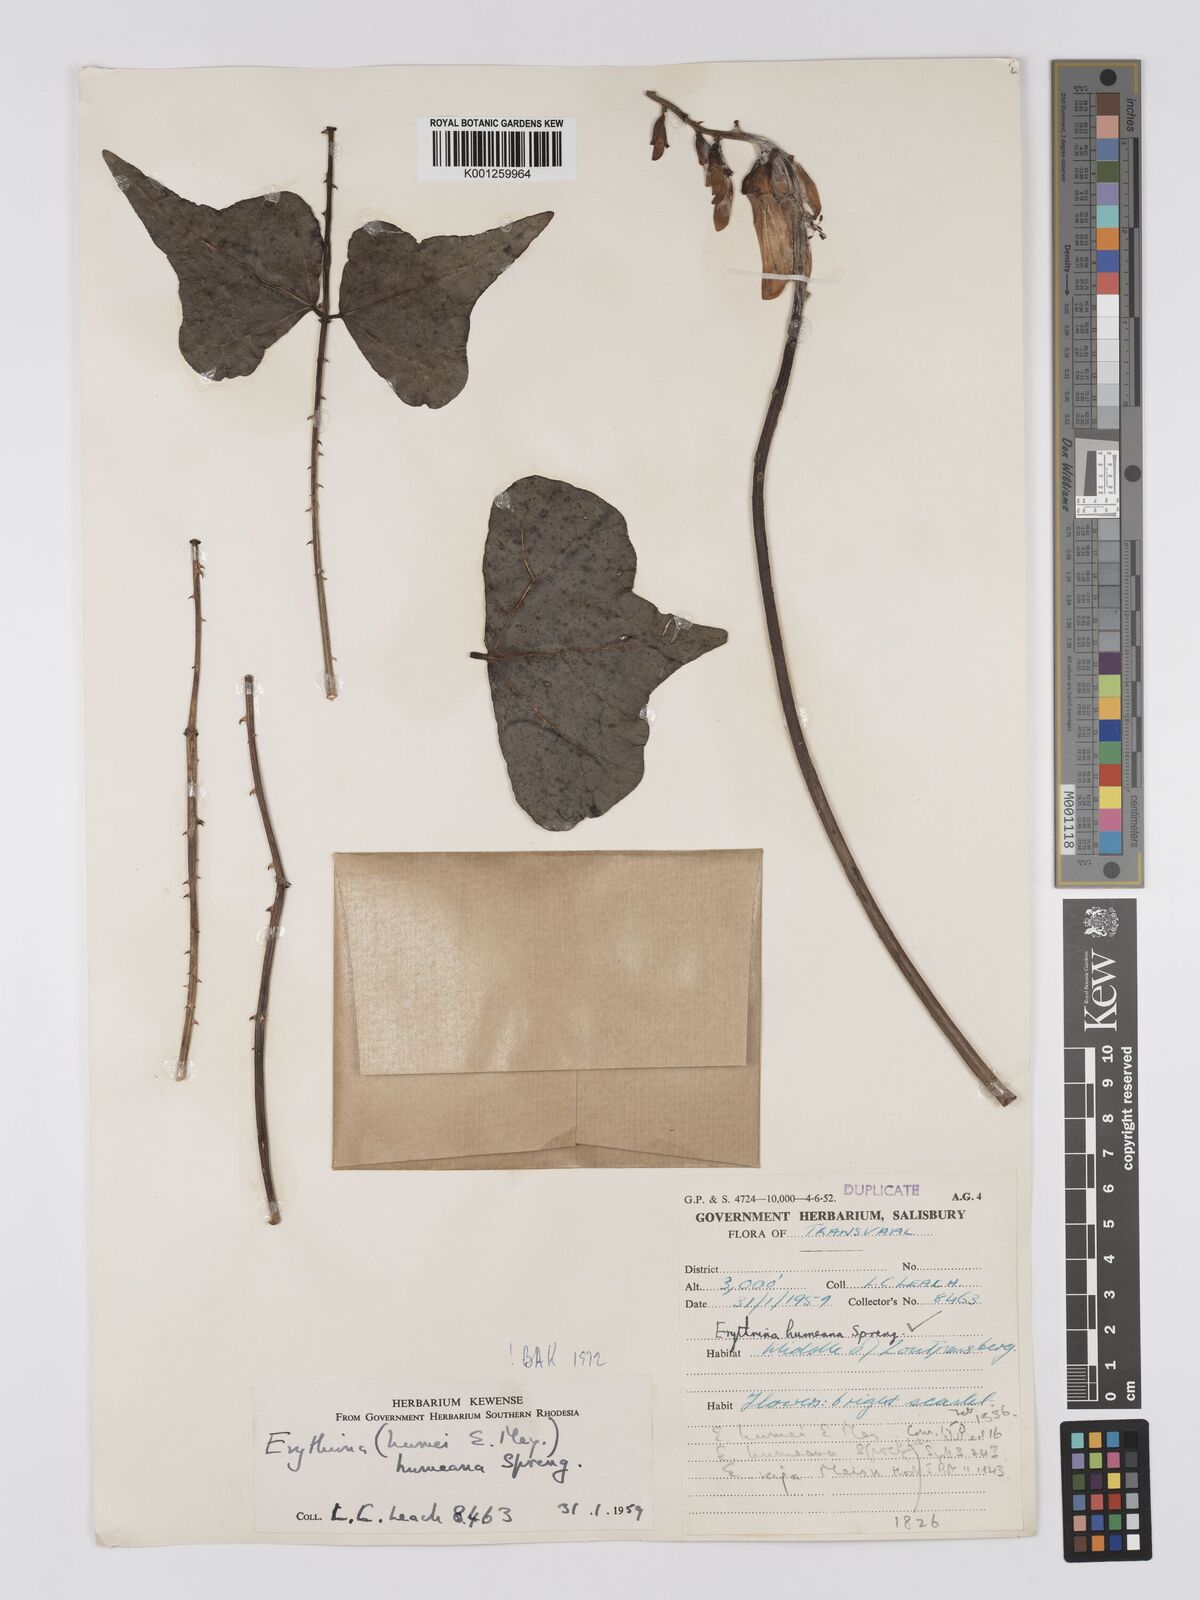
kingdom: Plantae
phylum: Tracheophyta
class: Magnoliopsida
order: Fabales
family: Fabaceae
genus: Erythrina
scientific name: Erythrina humeana
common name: Dwarf coral tree
